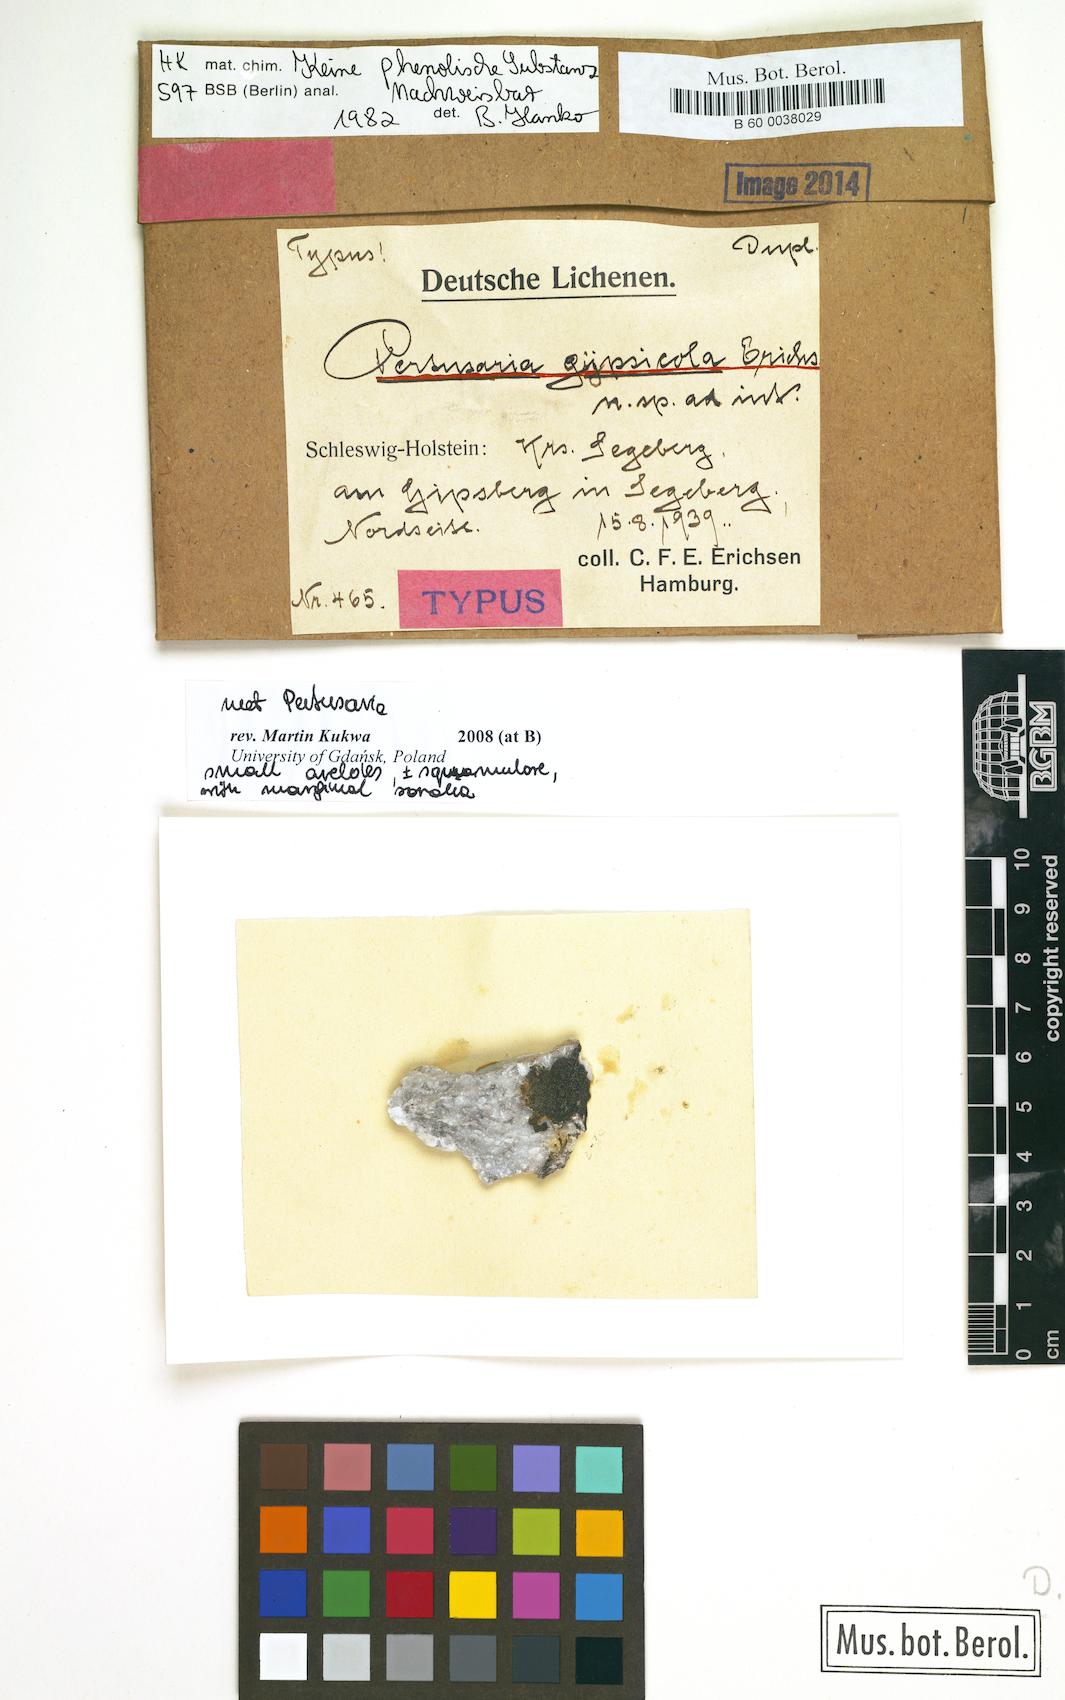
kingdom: Fungi
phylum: Ascomycota
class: Lecanoromycetes
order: Pertusariales
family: Pertusariaceae
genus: Pertusaria
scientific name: Pertusaria
